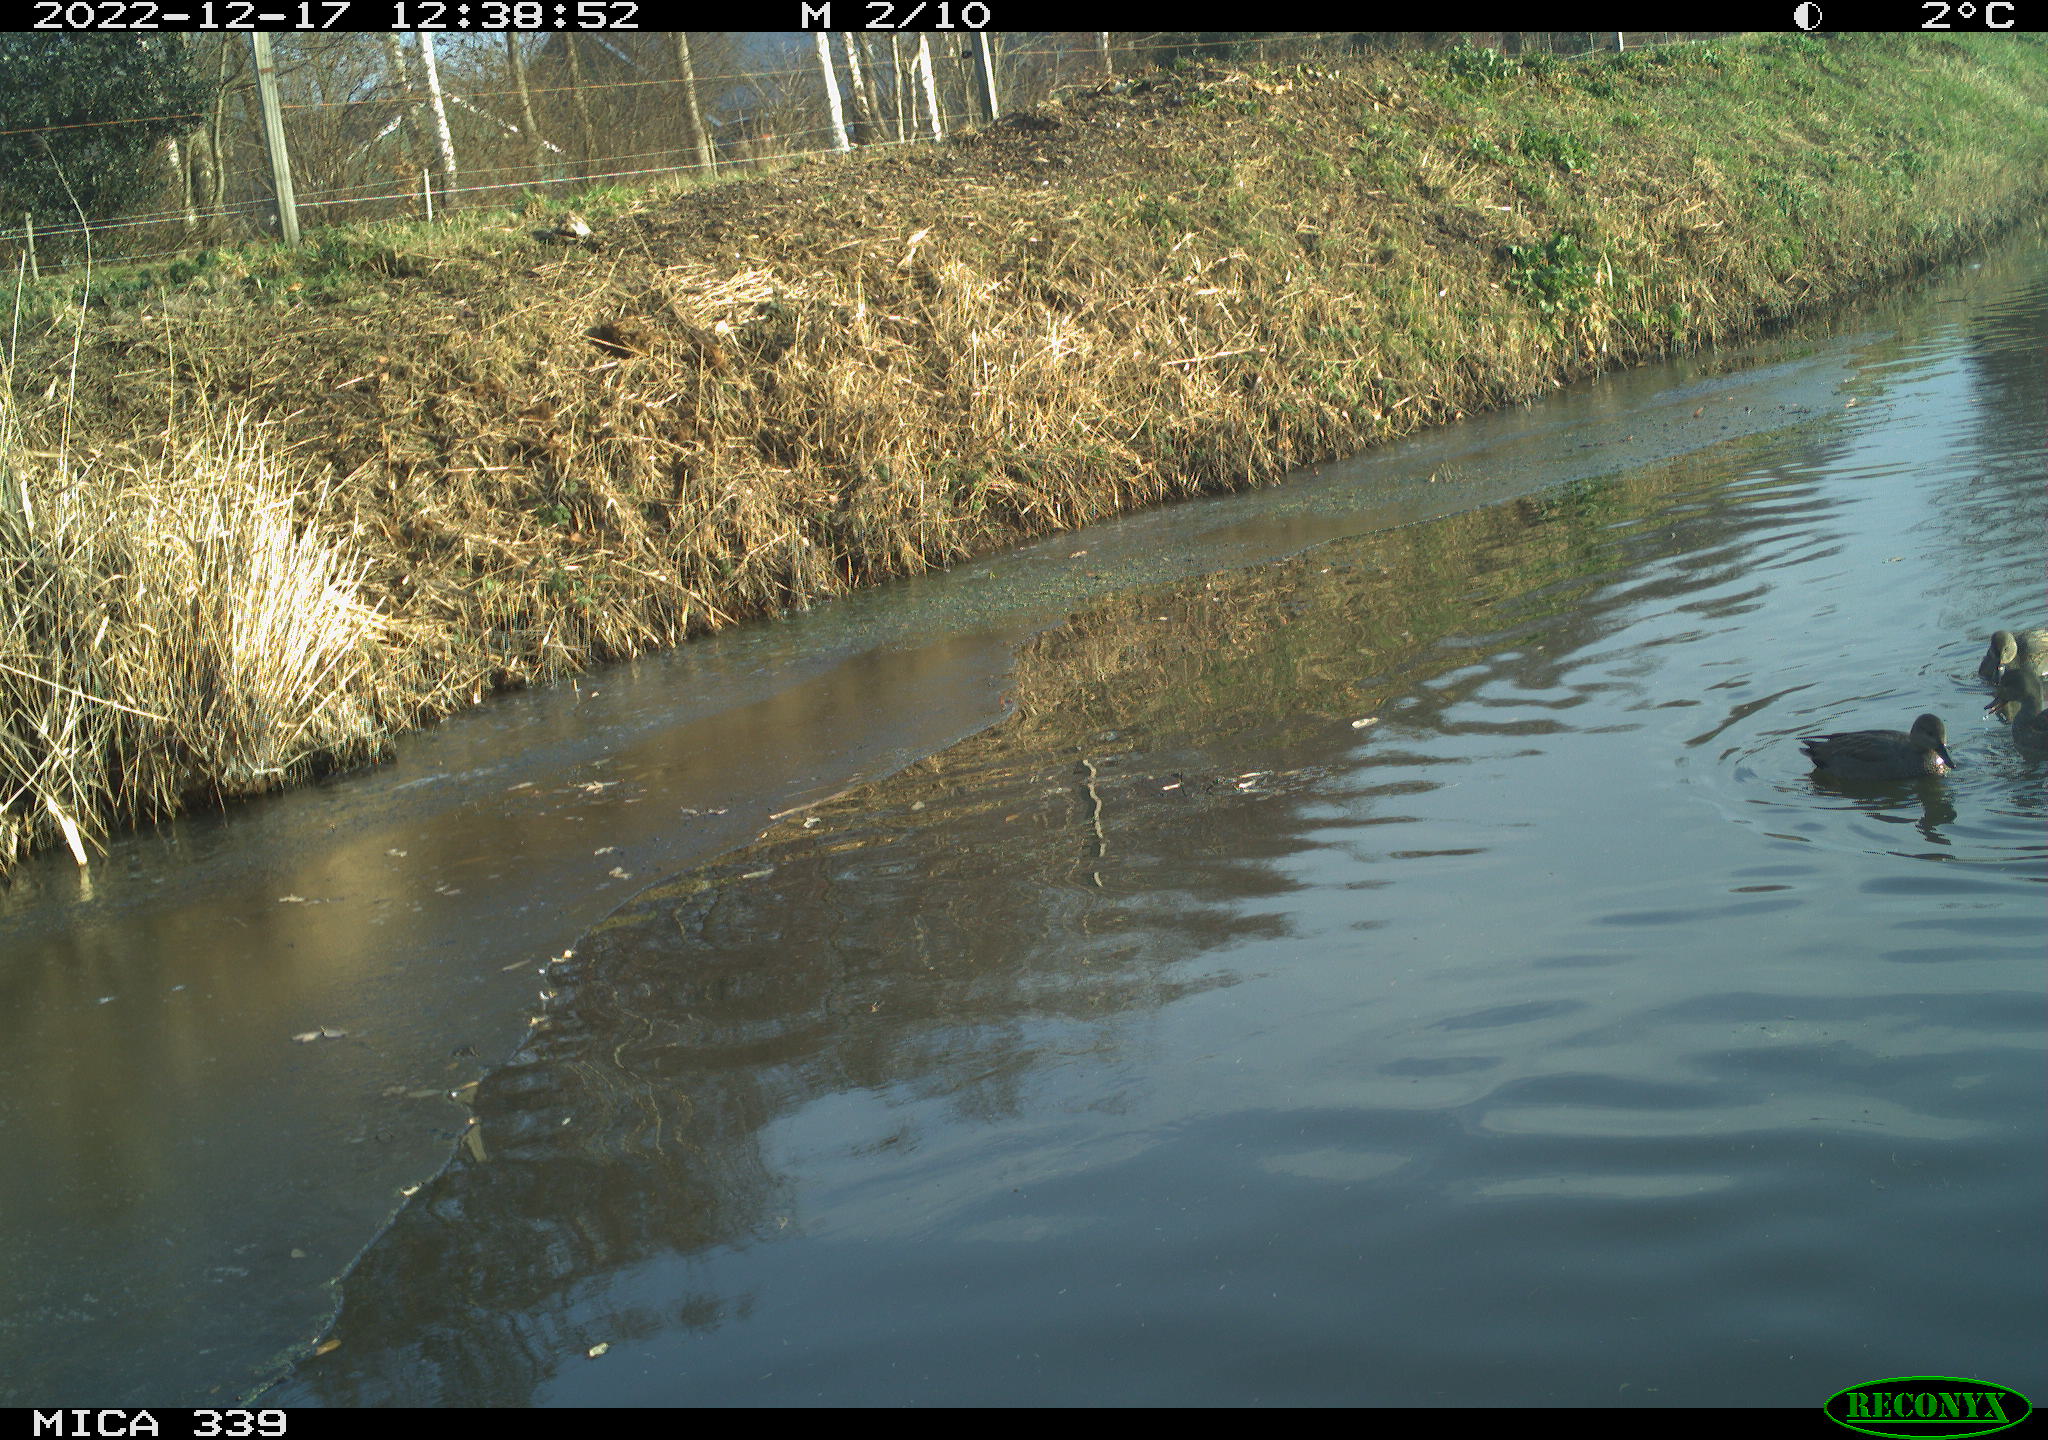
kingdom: Animalia
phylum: Chordata
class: Aves
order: Anseriformes
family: Anatidae
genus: Anas
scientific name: Anas
